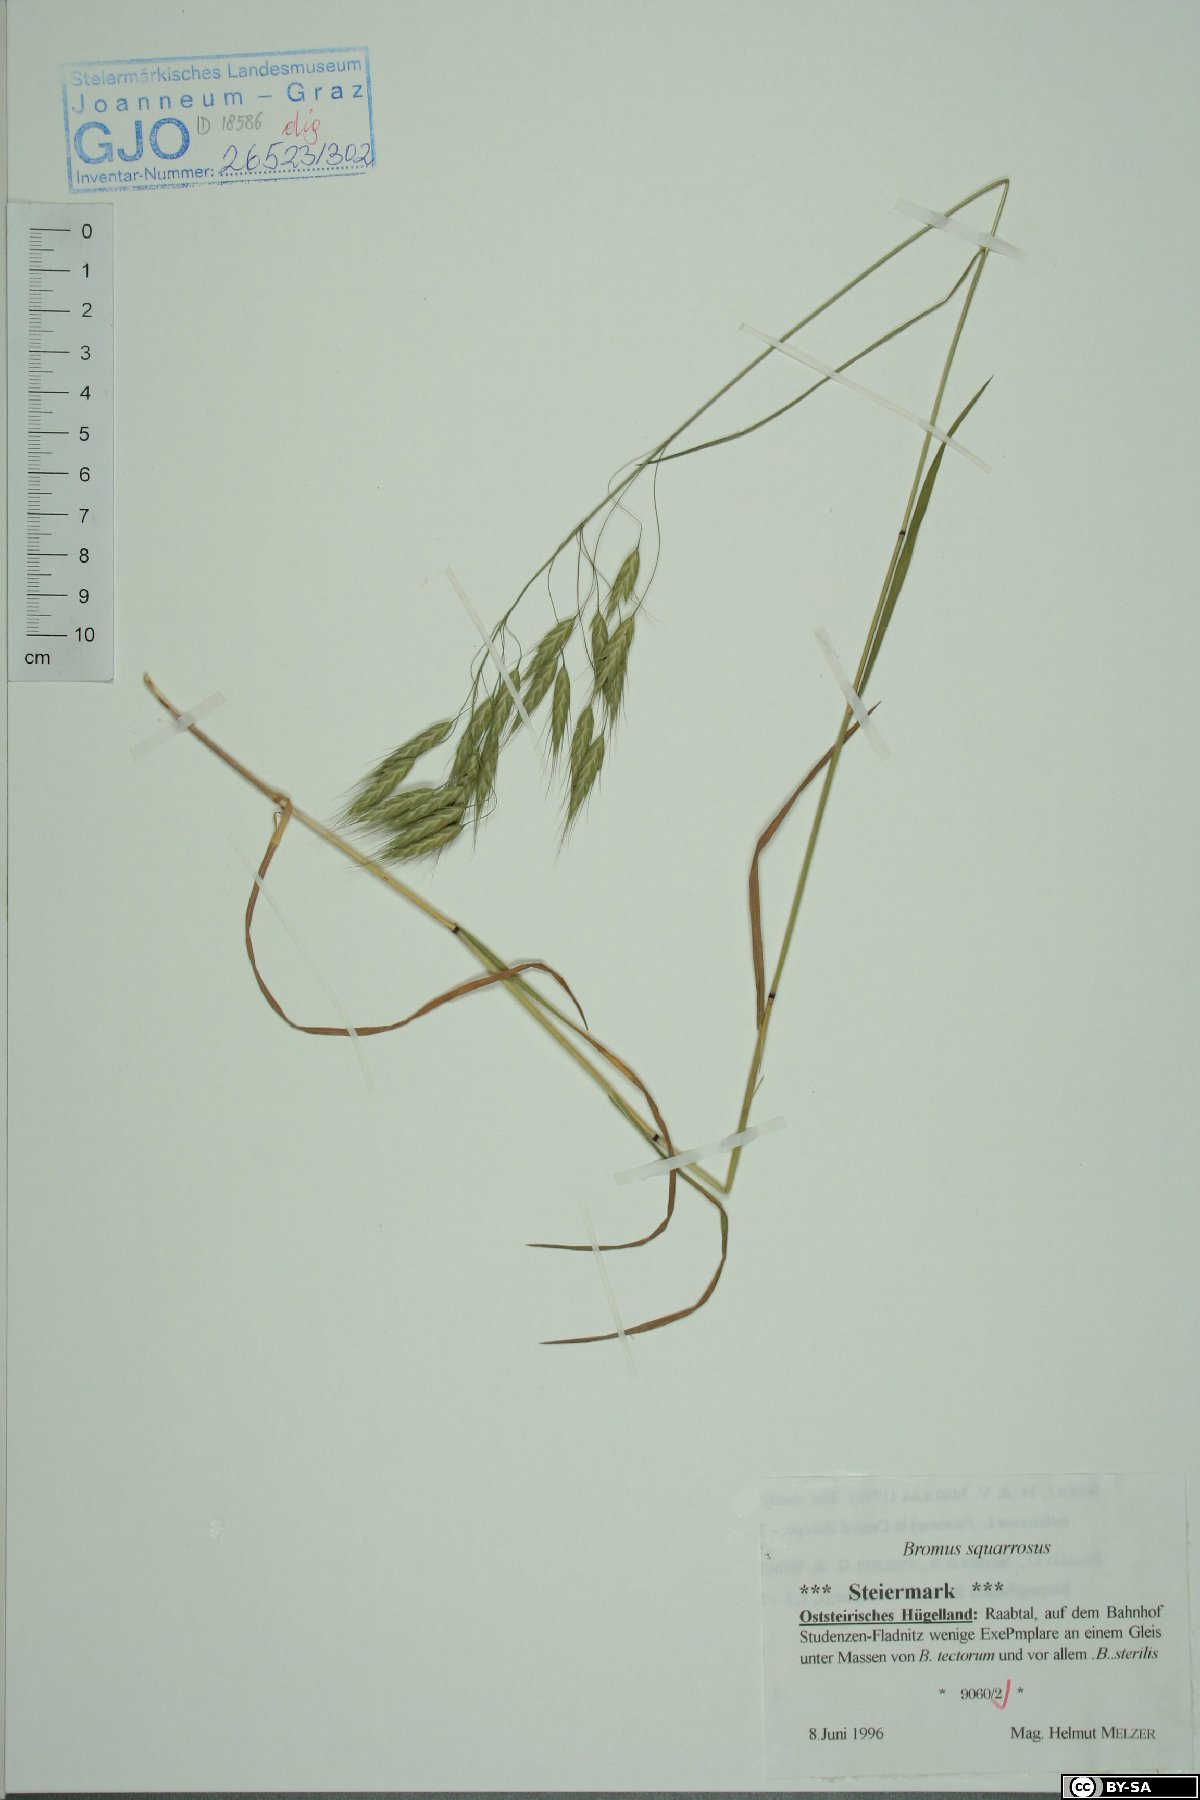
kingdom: Plantae
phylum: Tracheophyta
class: Liliopsida
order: Poales
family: Poaceae
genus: Bromus
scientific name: Bromus squarrosus
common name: Corn brome
